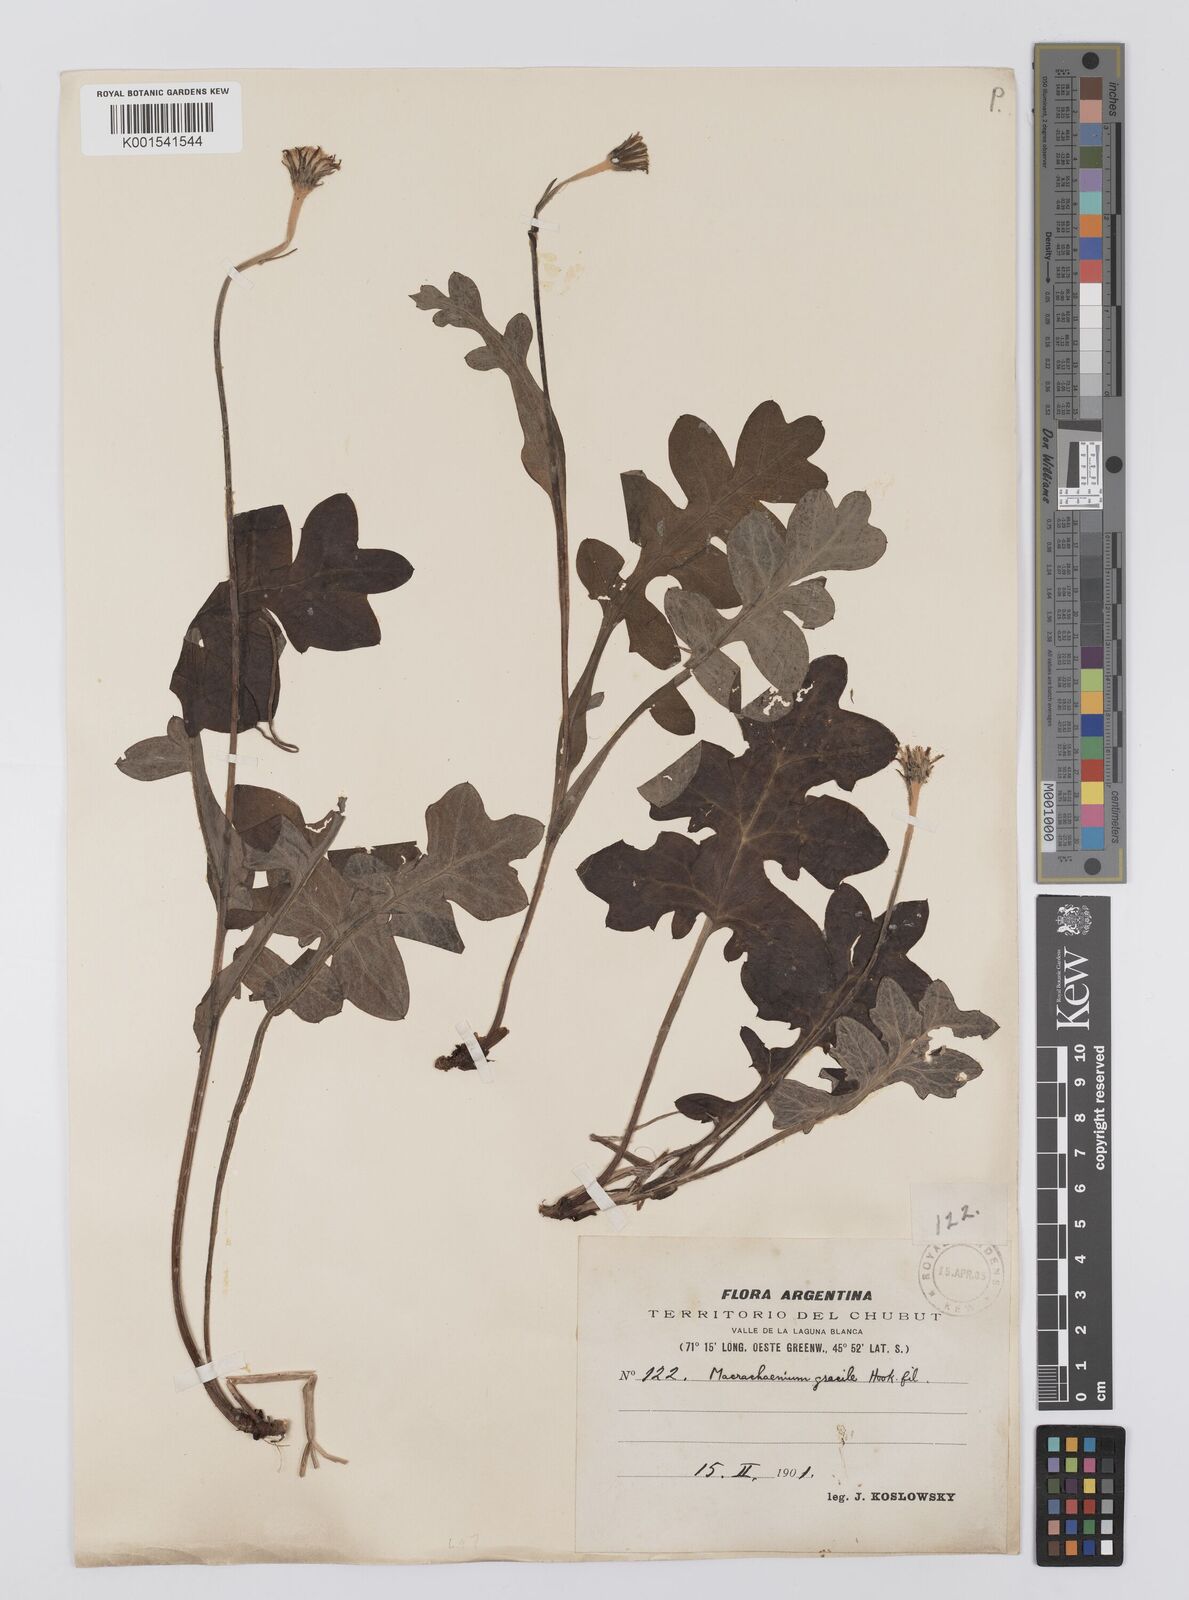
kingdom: Plantae
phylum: Tracheophyta
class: Magnoliopsida
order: Asterales
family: Asteraceae
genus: Macrachaenium
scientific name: Macrachaenium gracile
